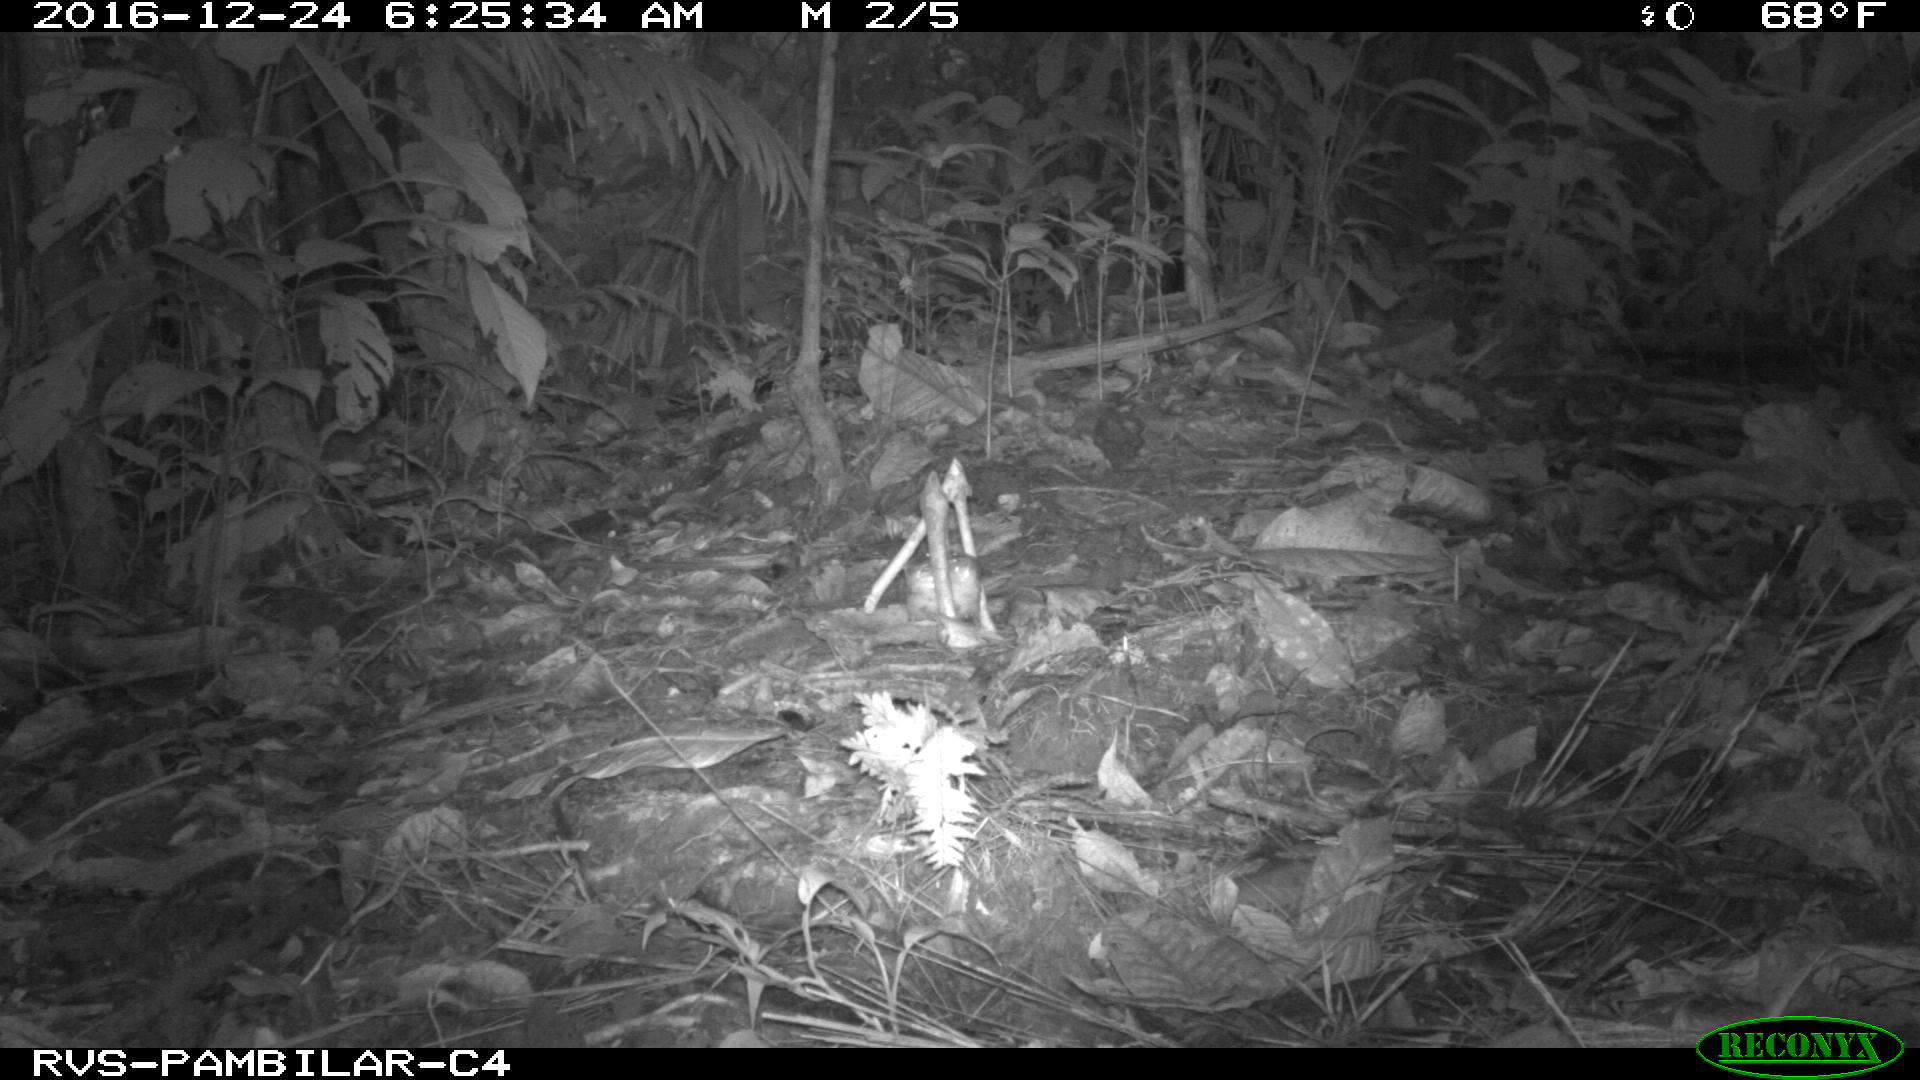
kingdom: Animalia
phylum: Chordata
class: Mammalia
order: Rodentia
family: Dasyproctidae
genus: Dasyprocta
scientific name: Dasyprocta punctata
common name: Central american agouti
